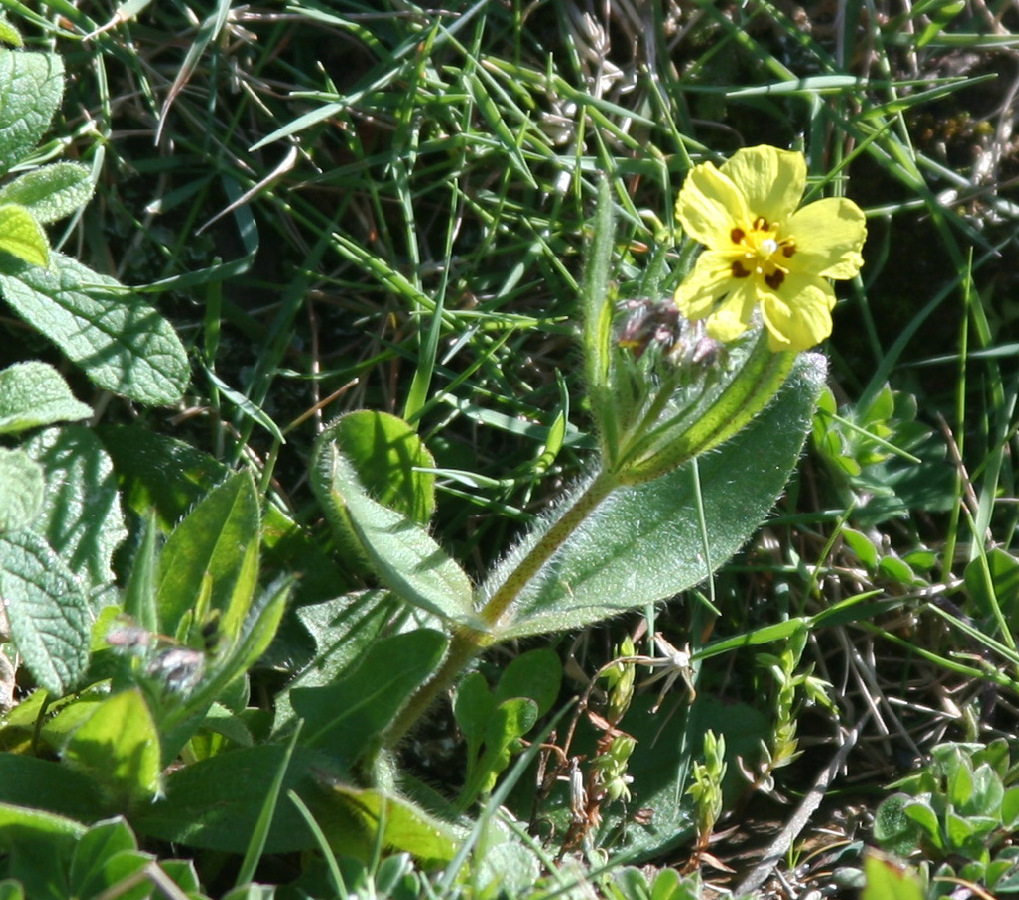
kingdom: Plantae
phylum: Tracheophyta
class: Magnoliopsida
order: Malvales
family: Cistaceae
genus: Tuberaria
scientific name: Tuberaria guttata
